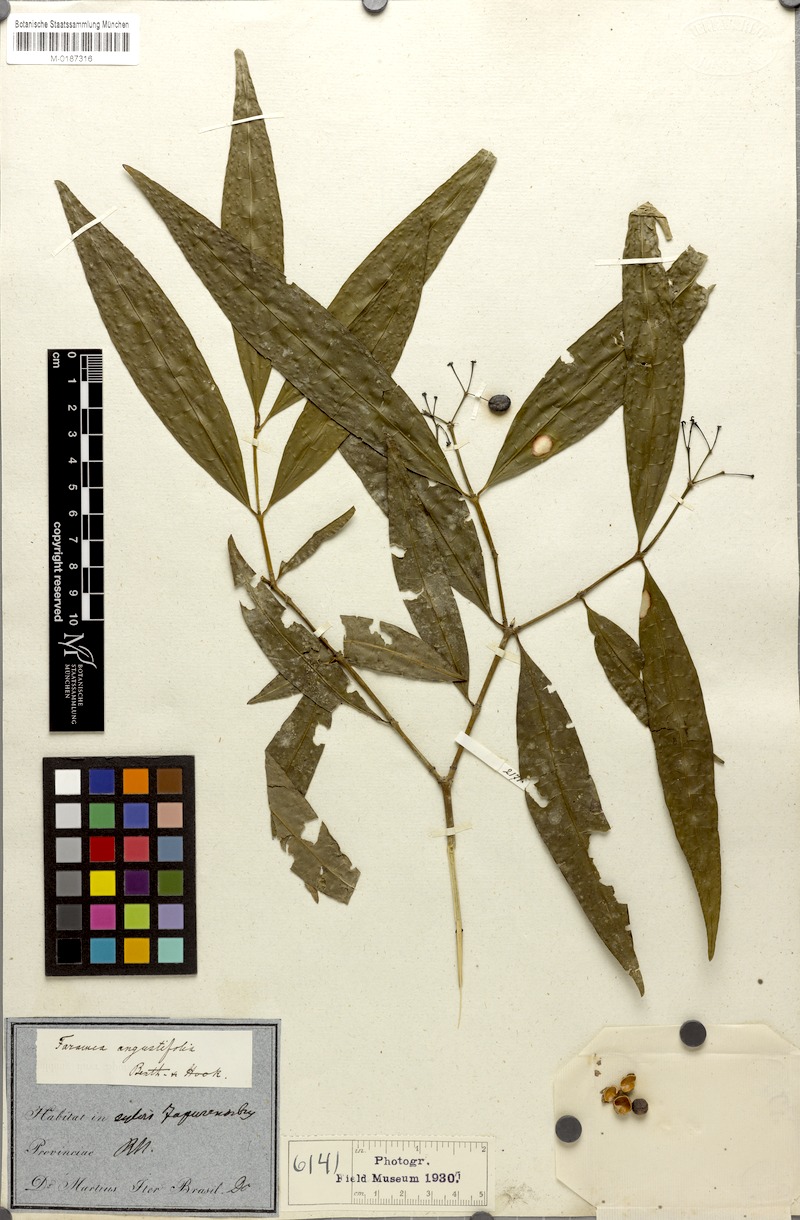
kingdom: Plantae
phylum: Tracheophyta
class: Magnoliopsida
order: Gentianales
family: Rubiaceae
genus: Faramea
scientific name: Faramea multiflora
